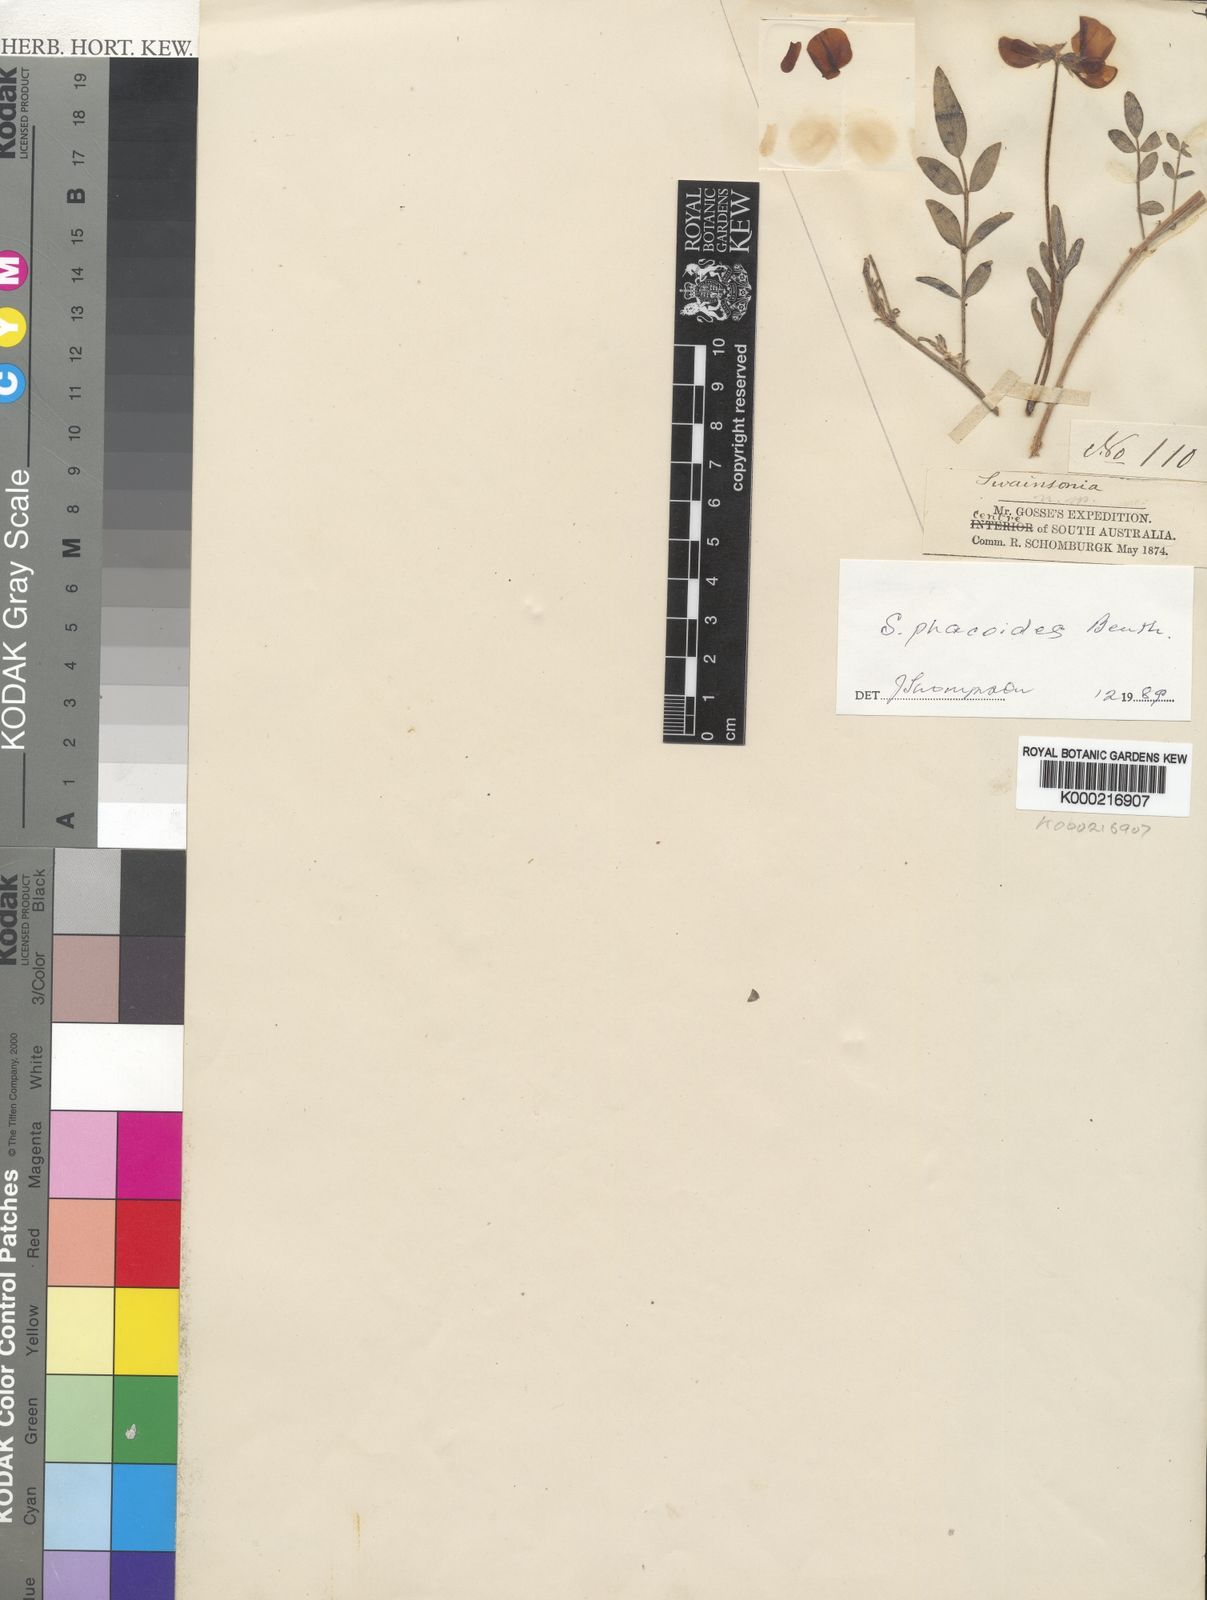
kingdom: Plantae
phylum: Tracheophyta
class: Magnoliopsida
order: Fabales
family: Fabaceae
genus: Swainsona
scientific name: Swainsona phacoides
